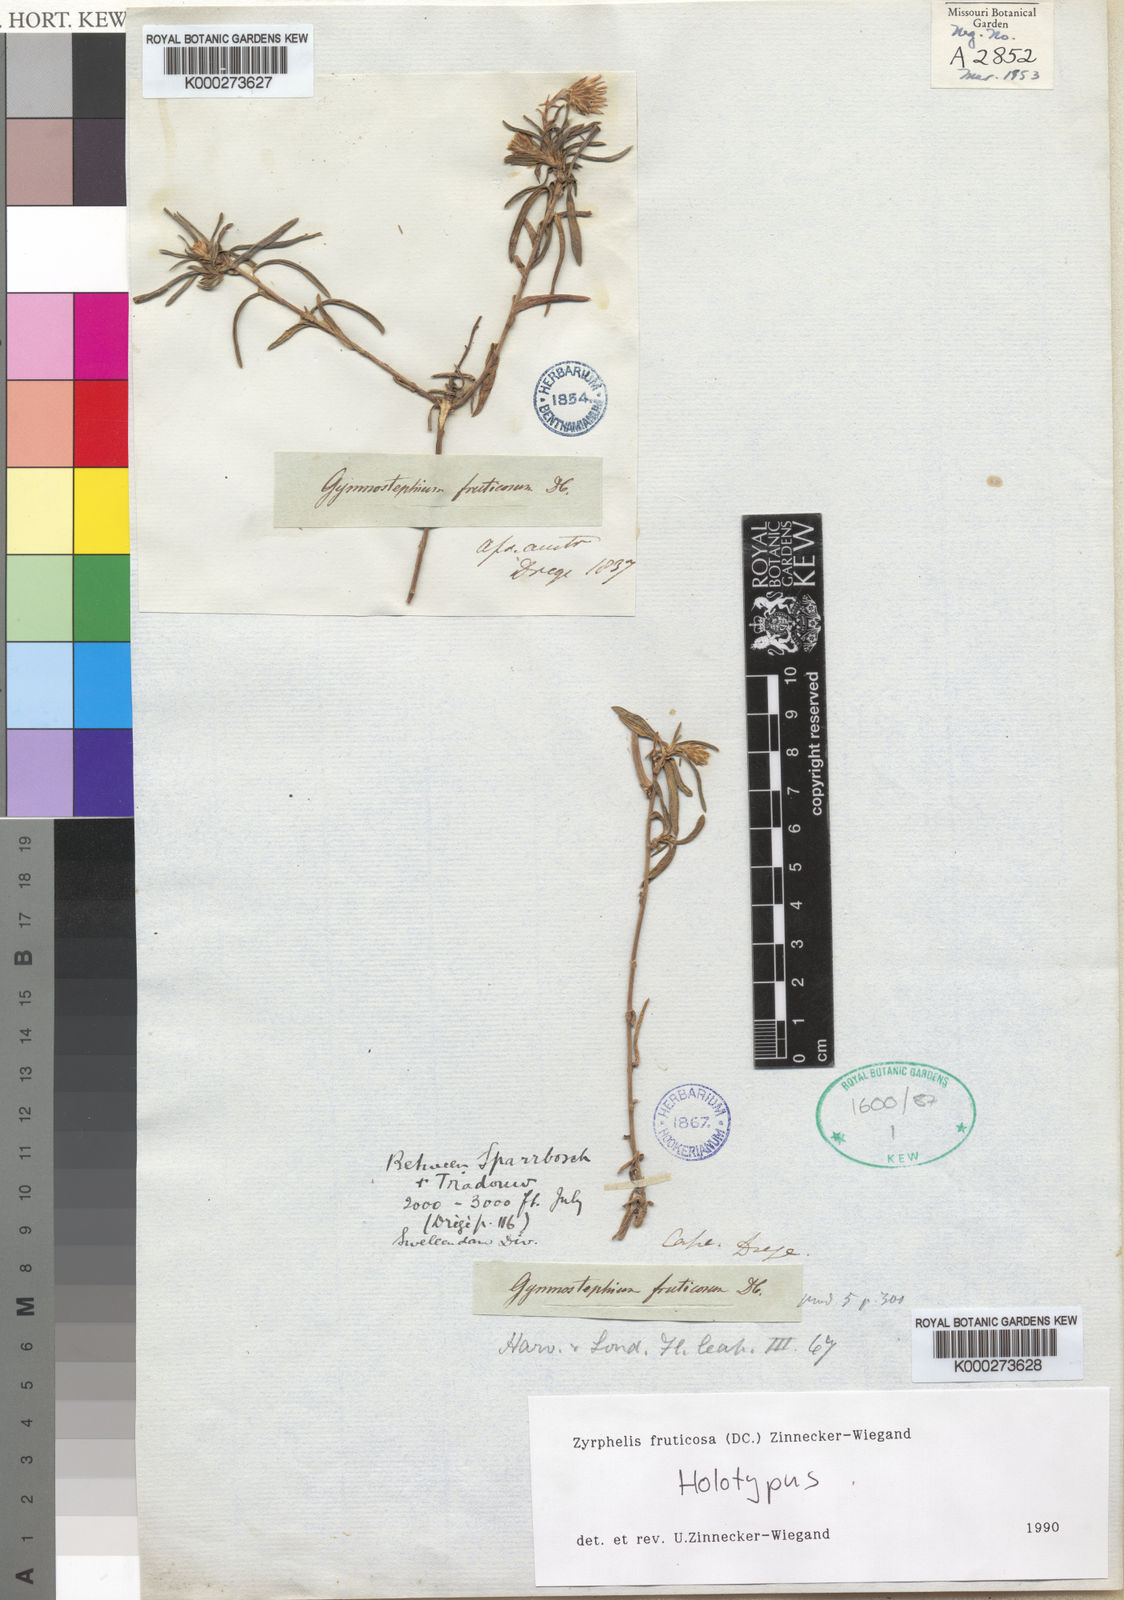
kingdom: Plantae
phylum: Tracheophyta
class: Magnoliopsida
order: Asterales
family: Asteraceae
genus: Zyrphelis
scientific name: Zyrphelis fruticosa
